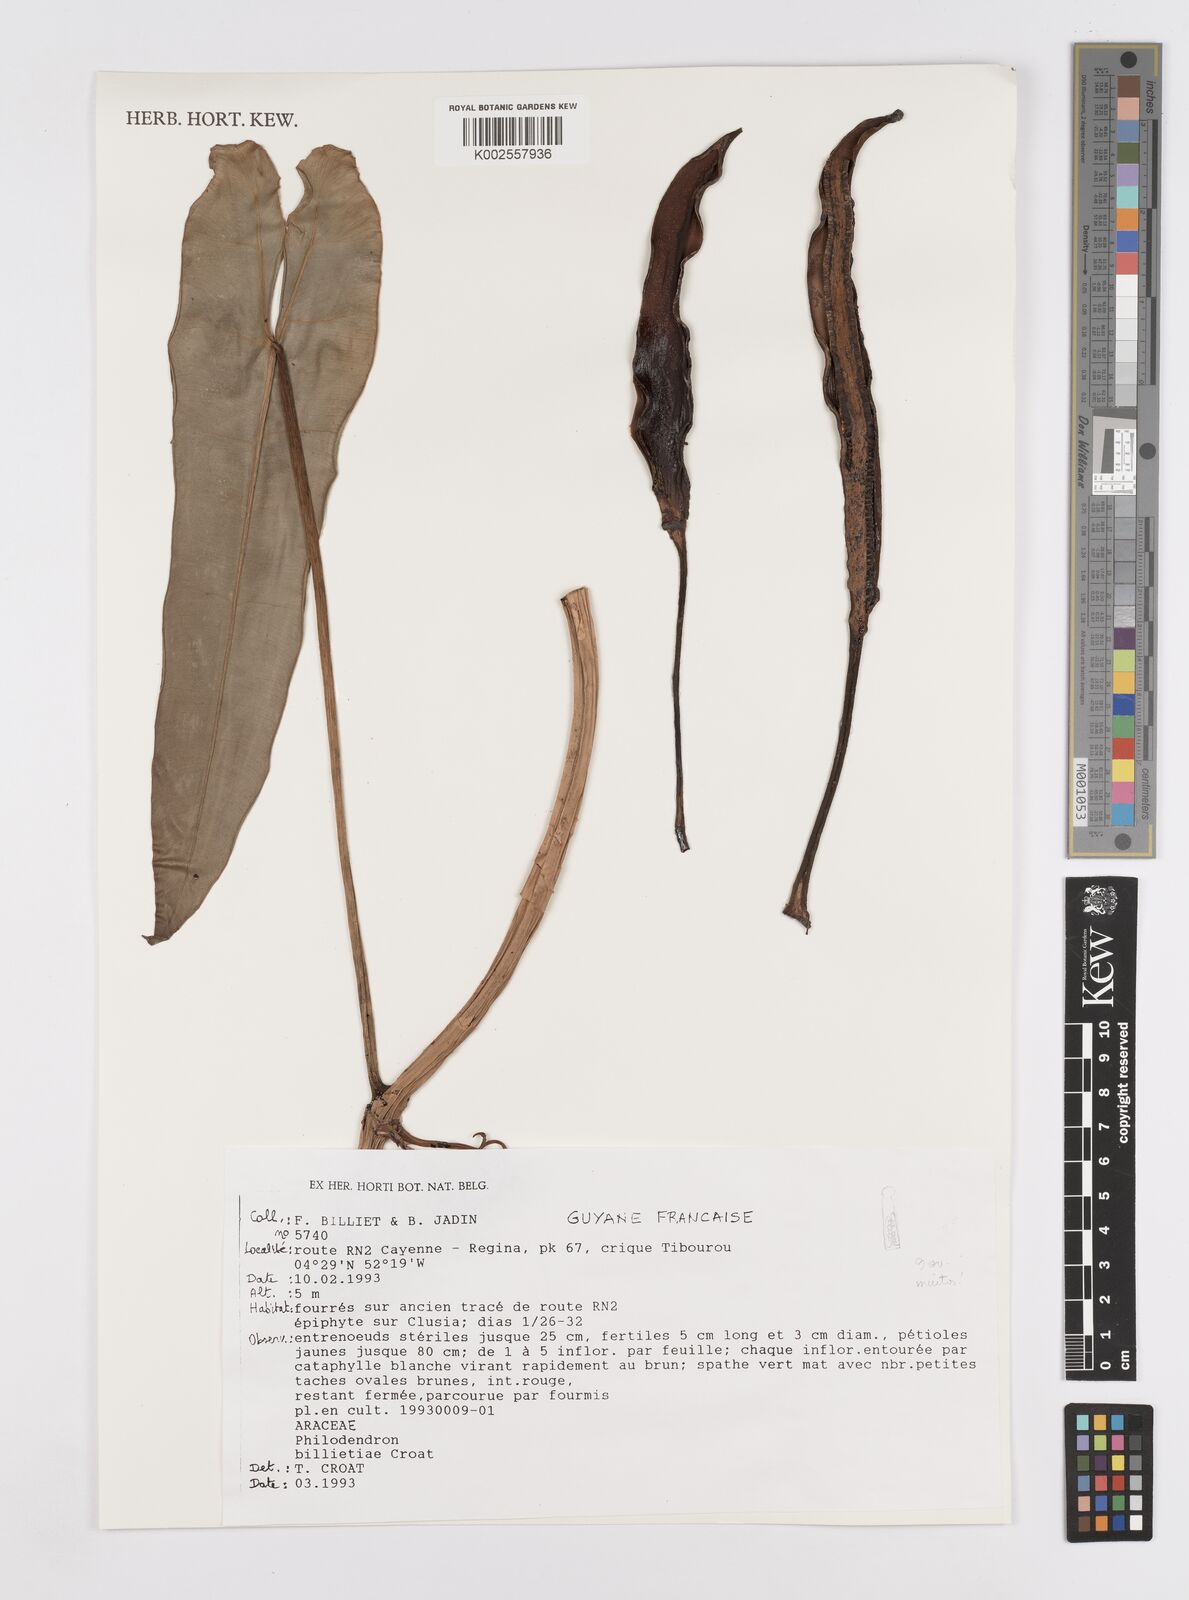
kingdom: Plantae
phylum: Tracheophyta
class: Liliopsida
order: Alismatales
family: Araceae
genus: Philodendron
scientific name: Philodendron billietiae
